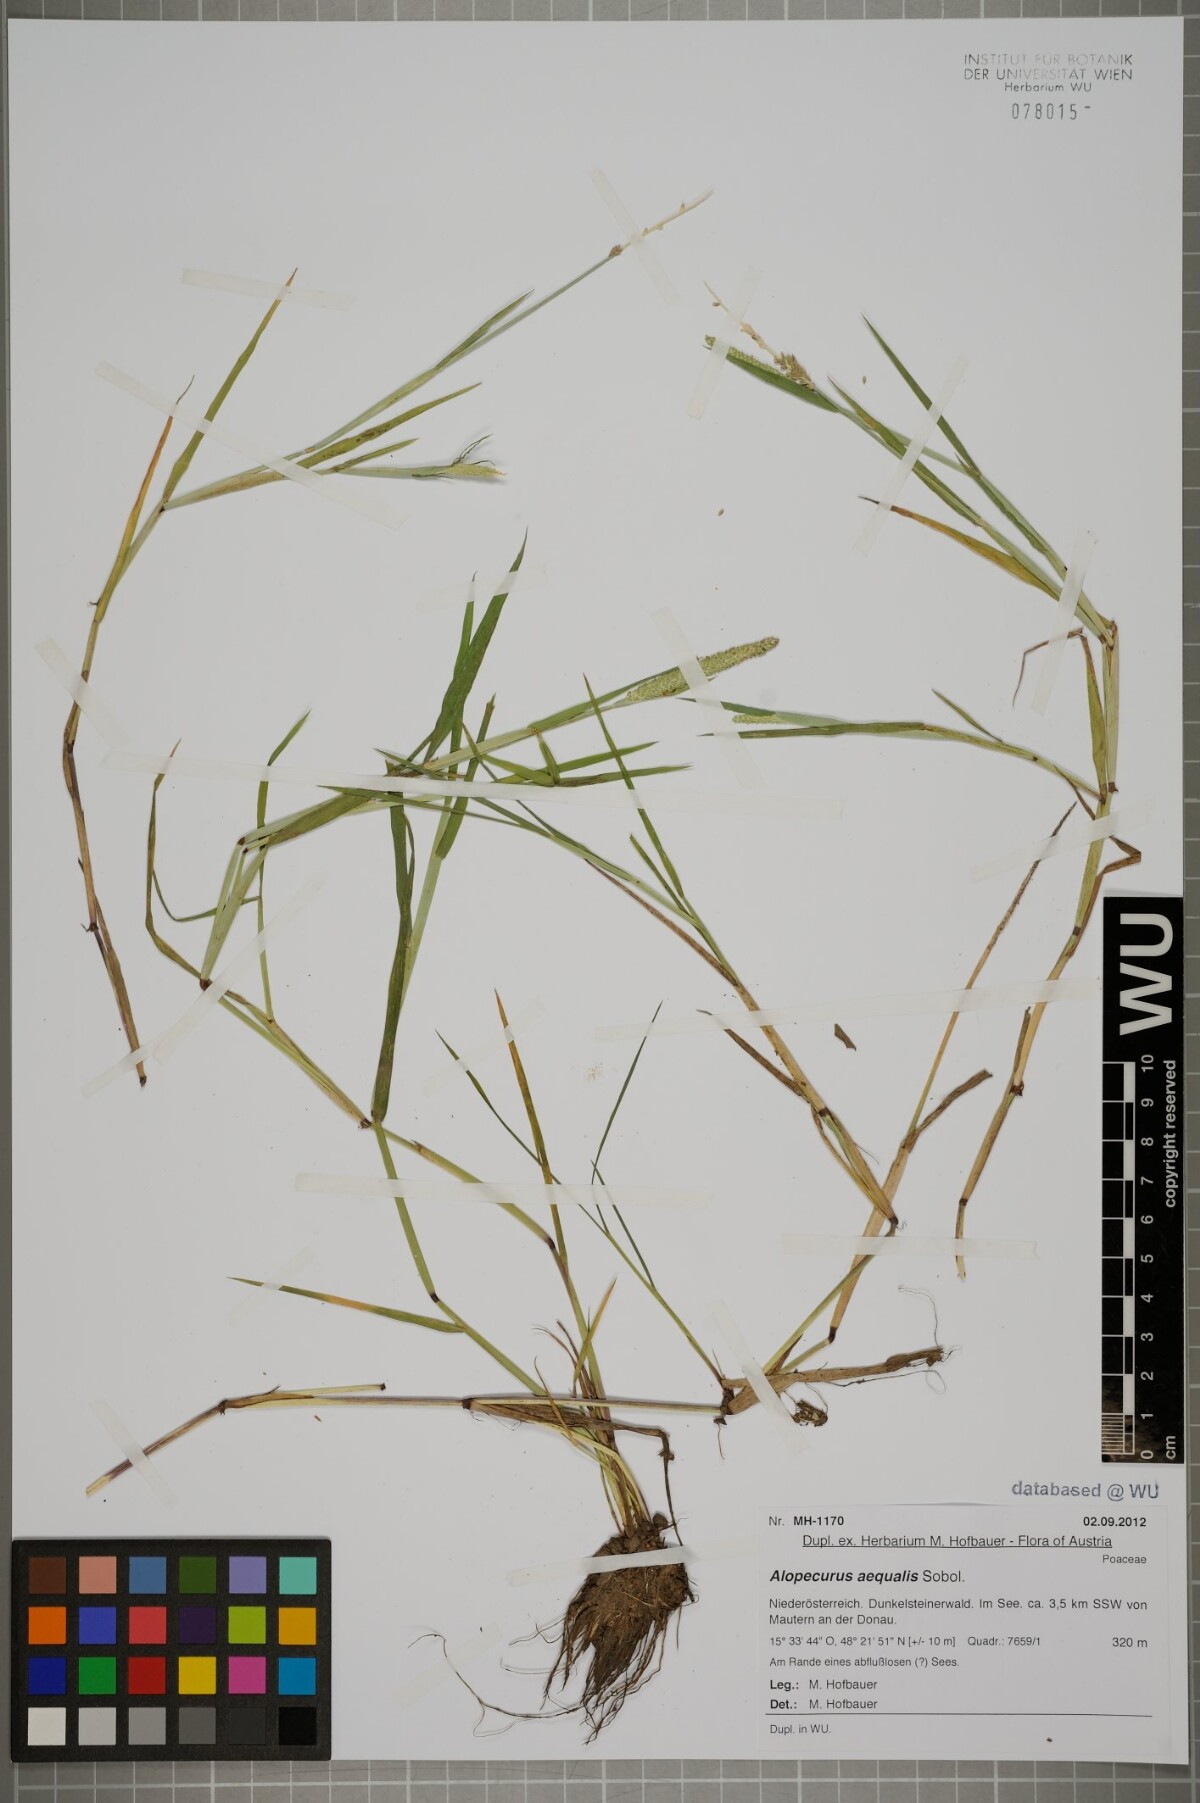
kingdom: Plantae
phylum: Tracheophyta
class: Liliopsida
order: Poales
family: Poaceae
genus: Alopecurus
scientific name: Alopecurus aequalis
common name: Orange foxtail
